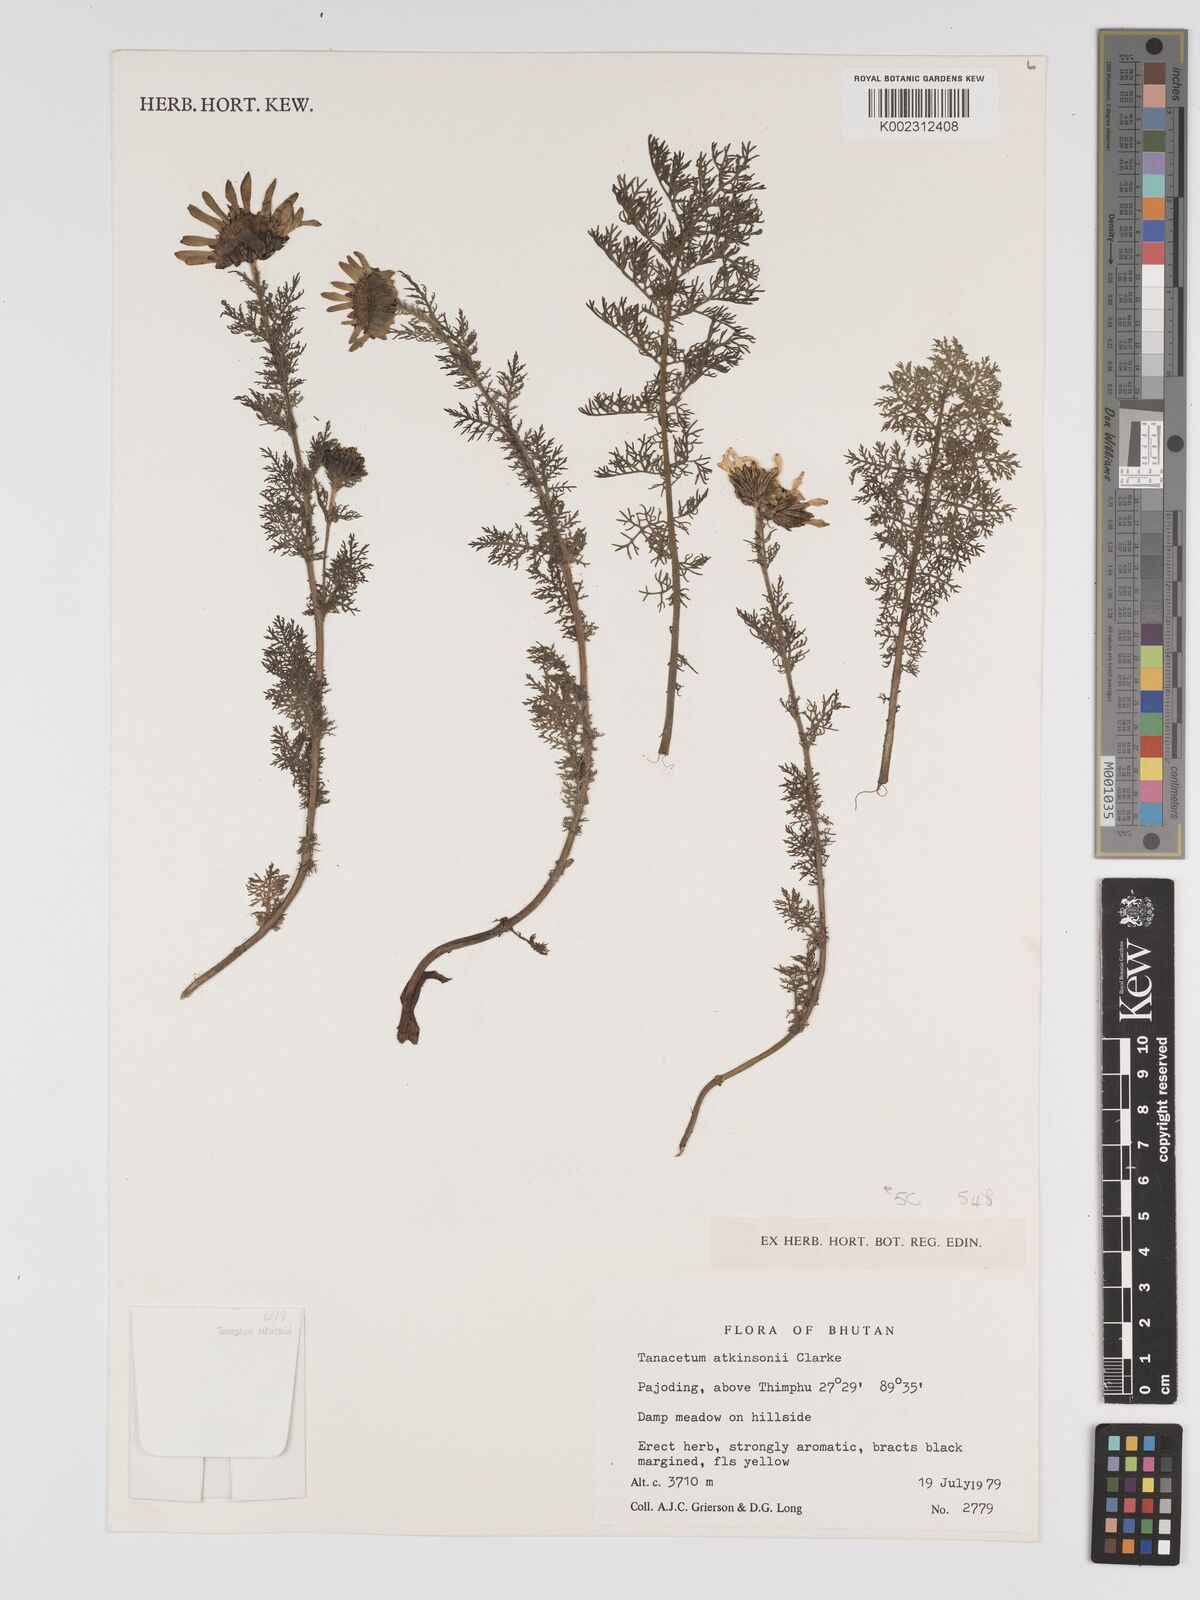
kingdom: Plantae
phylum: Tracheophyta
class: Magnoliopsida
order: Asterales
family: Asteraceae
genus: Tanacetum
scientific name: Tanacetum atkinsonii
